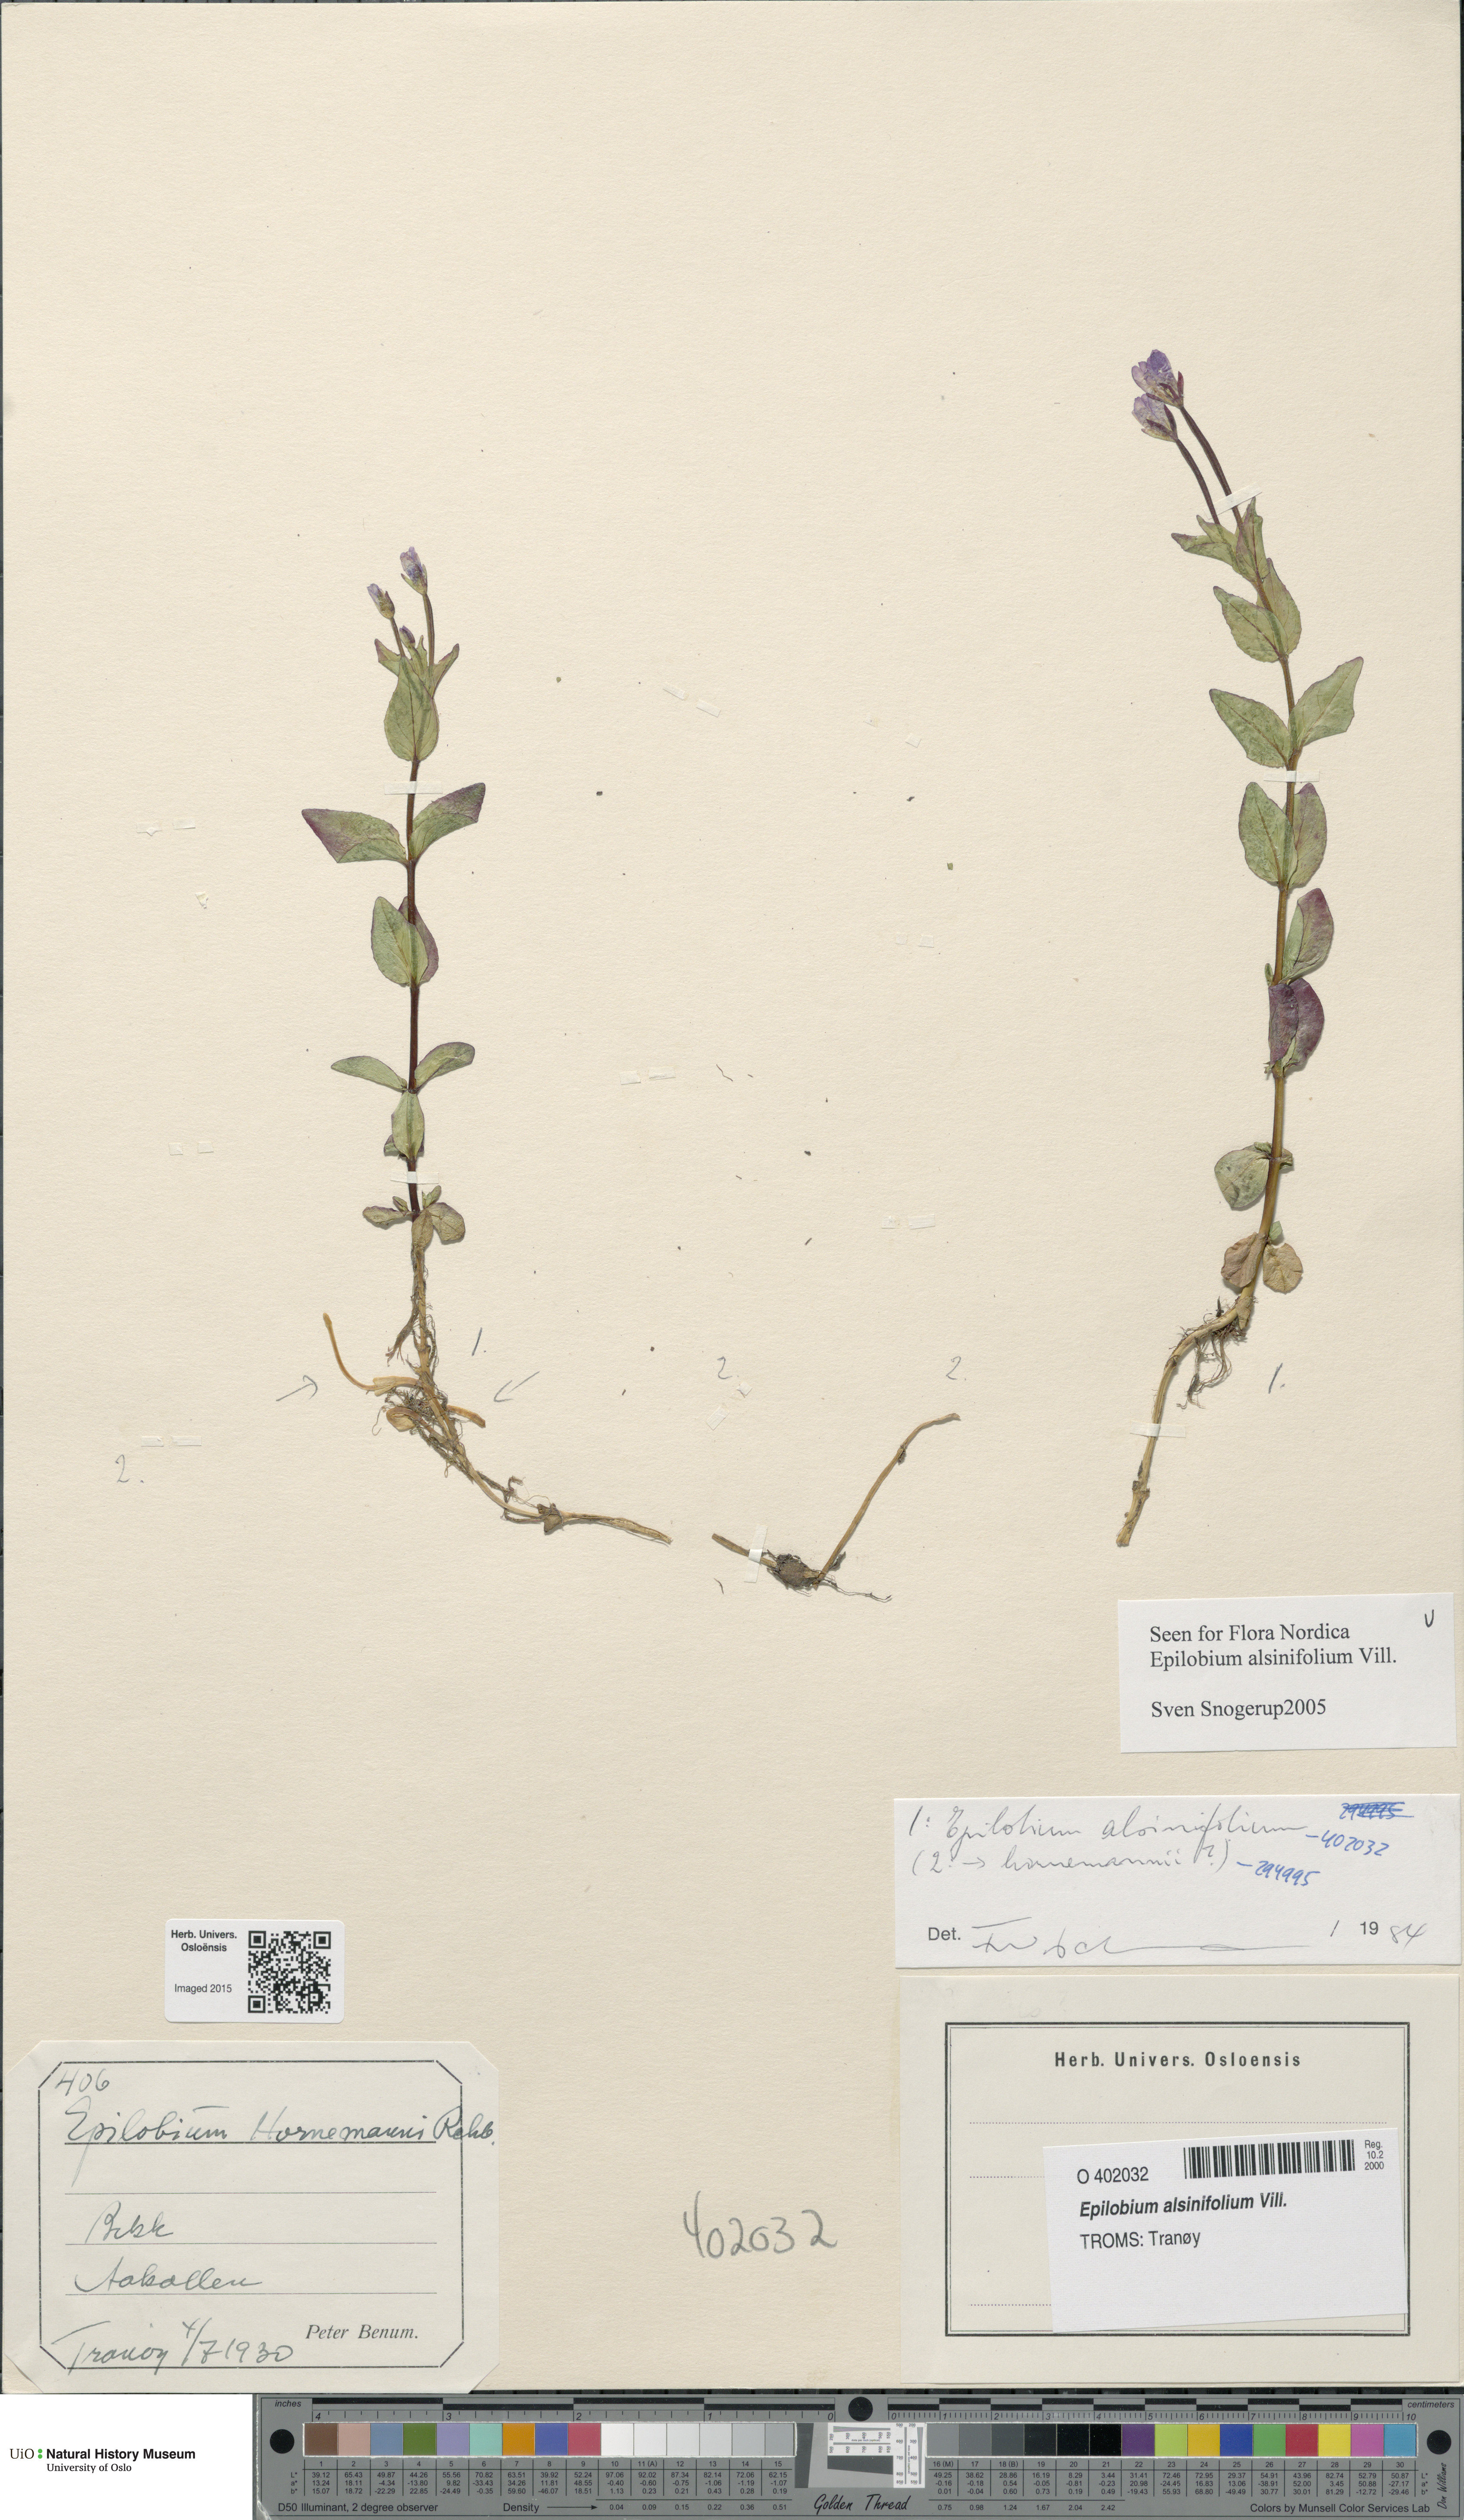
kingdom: Plantae
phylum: Tracheophyta
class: Magnoliopsida
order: Myrtales
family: Onagraceae
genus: Epilobium
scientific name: Epilobium alsinifolium
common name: Chickweed willowherb
